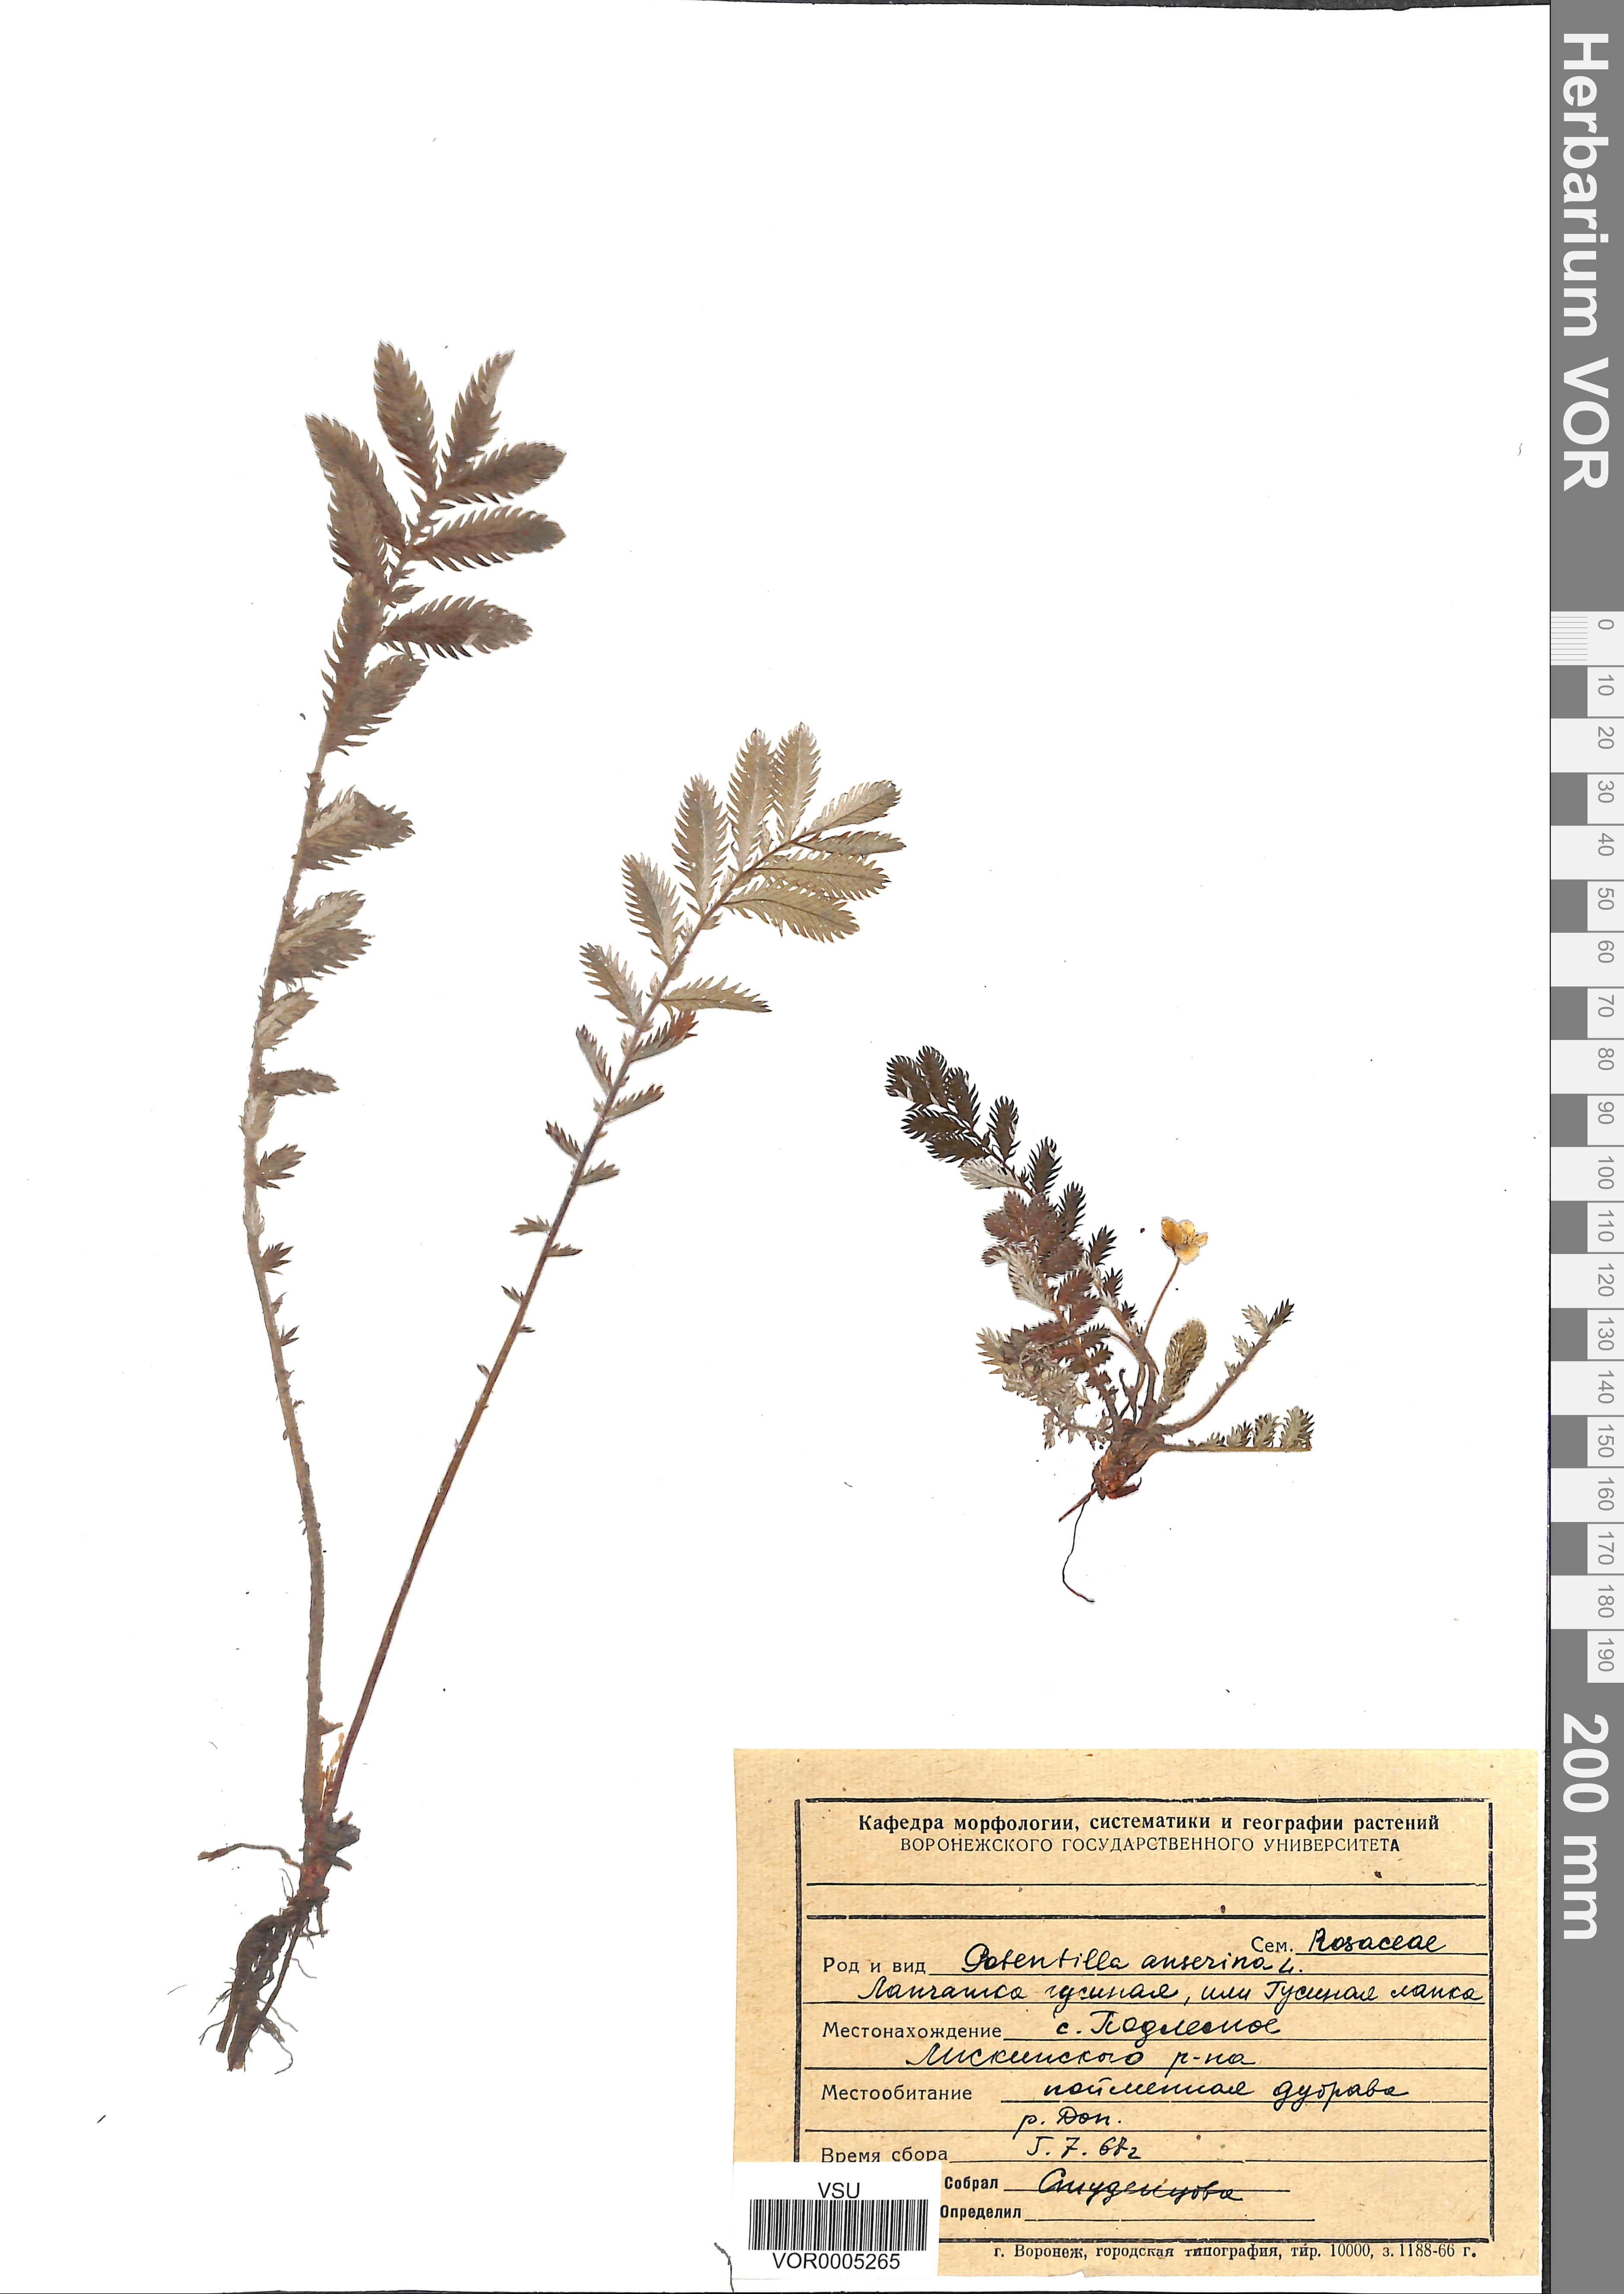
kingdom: Plantae
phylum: Tracheophyta
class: Magnoliopsida
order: Rosales
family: Rosaceae
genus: Argentina
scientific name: Argentina anserina
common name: Common silverweed
